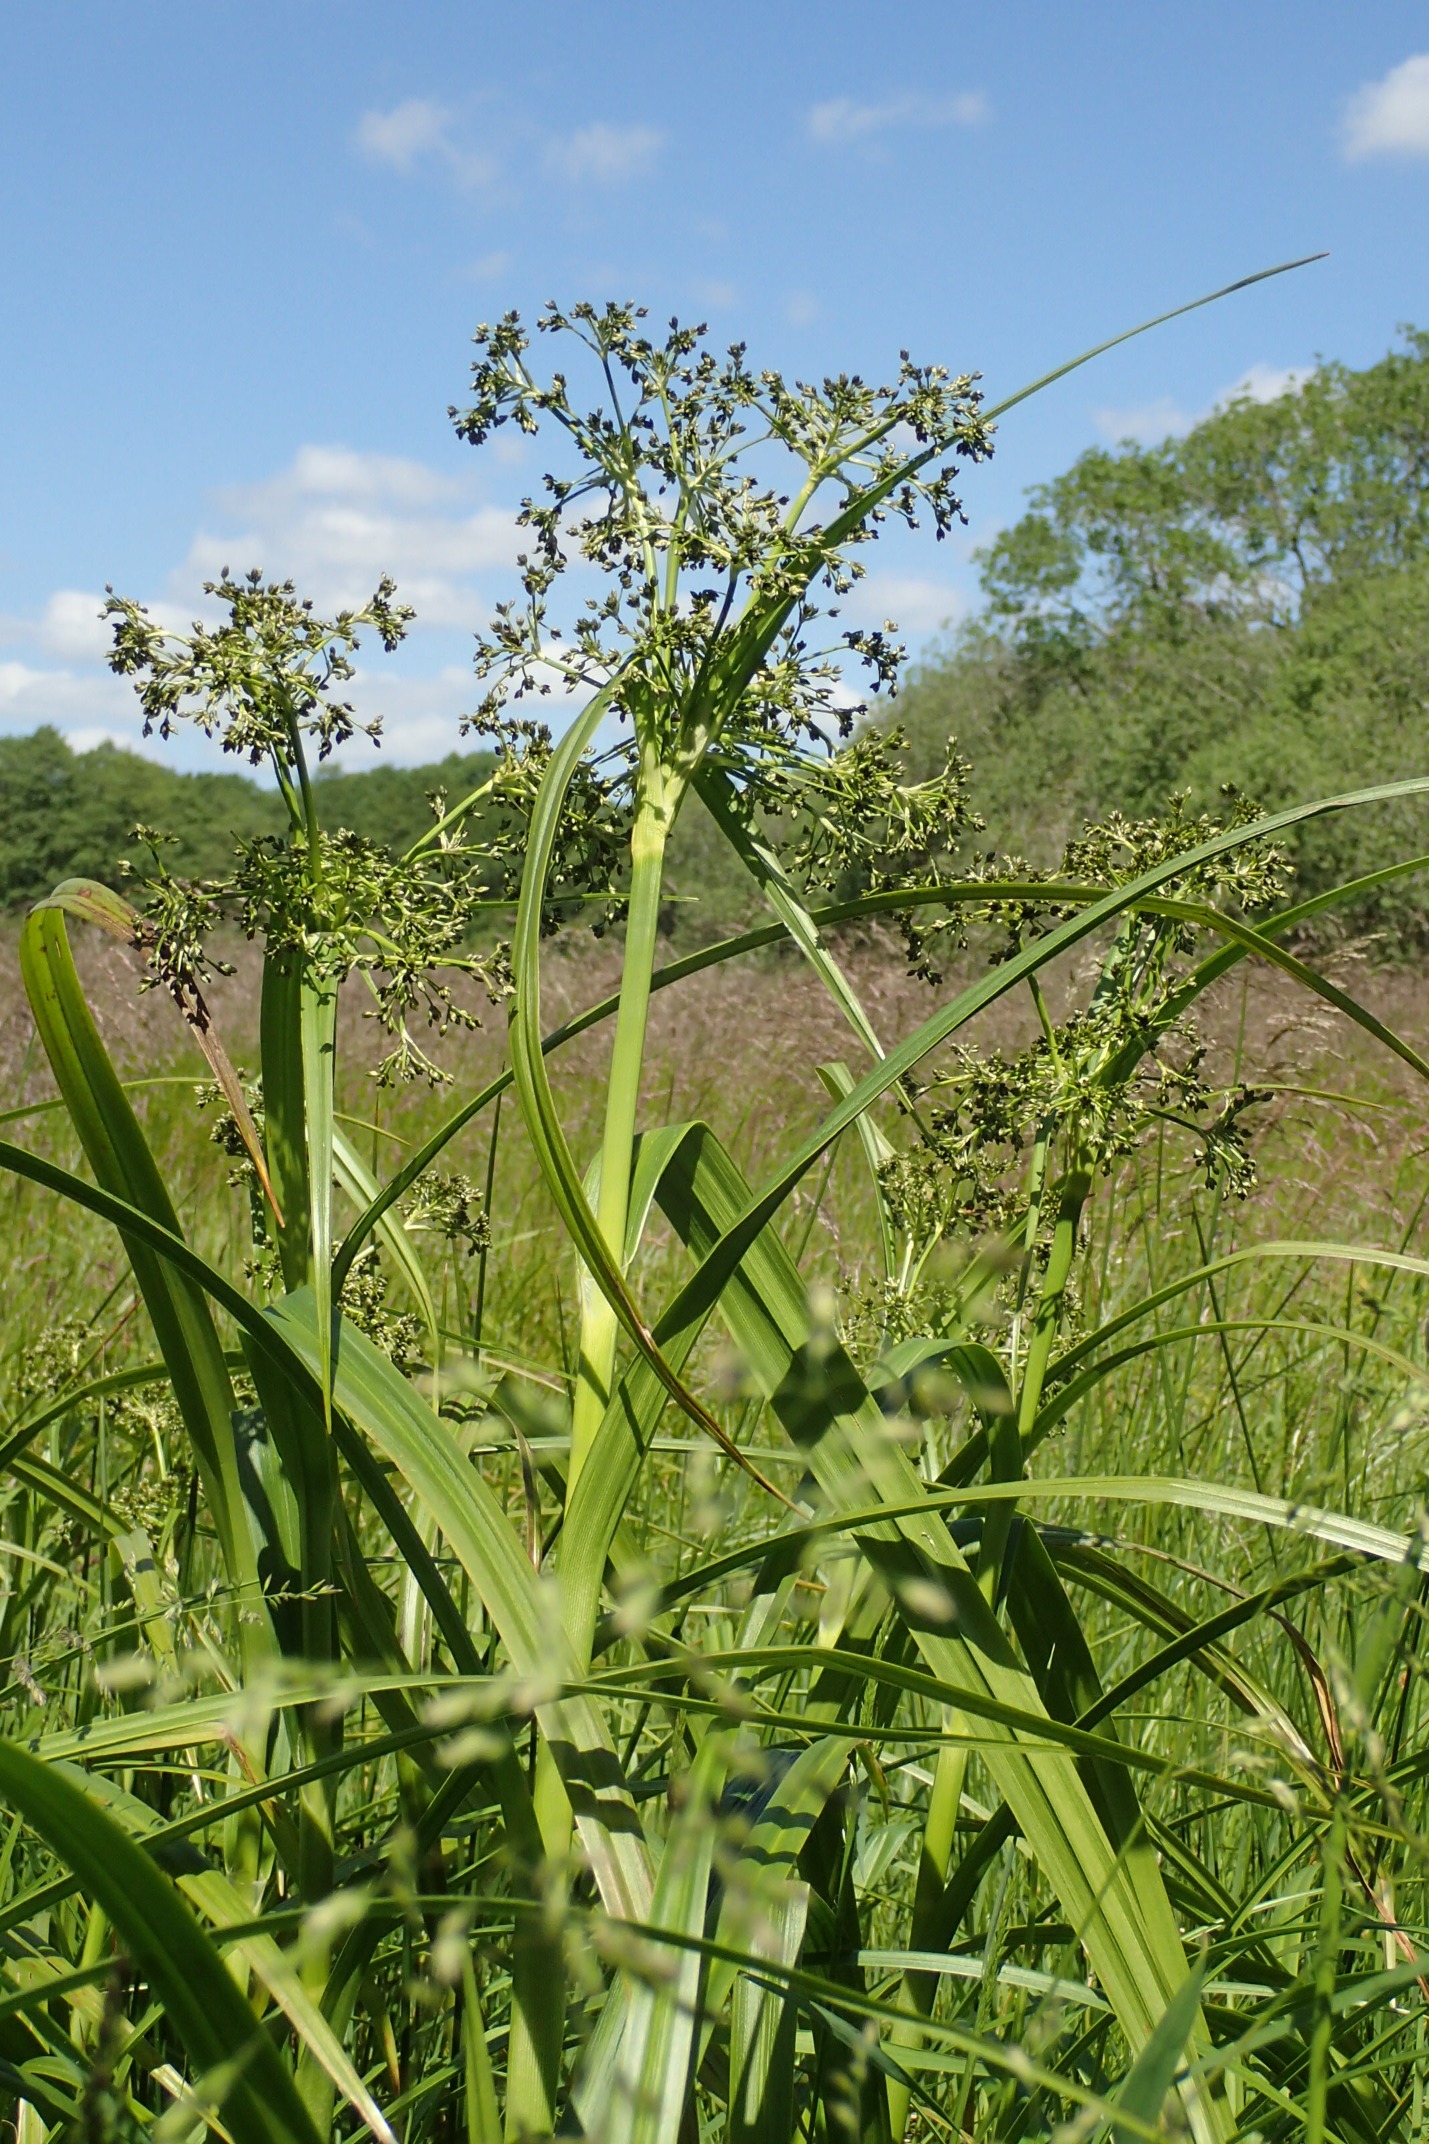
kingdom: Plantae
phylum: Tracheophyta
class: Liliopsida
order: Poales
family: Cyperaceae
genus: Scirpus
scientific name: Scirpus sylvaticus
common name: Skov-kogleaks
